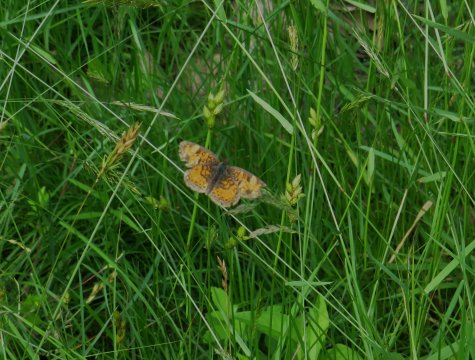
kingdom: Animalia
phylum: Arthropoda
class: Insecta
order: Lepidoptera
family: Nymphalidae
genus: Phyciodes
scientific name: Phyciodes tharos
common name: Northern Crescent
